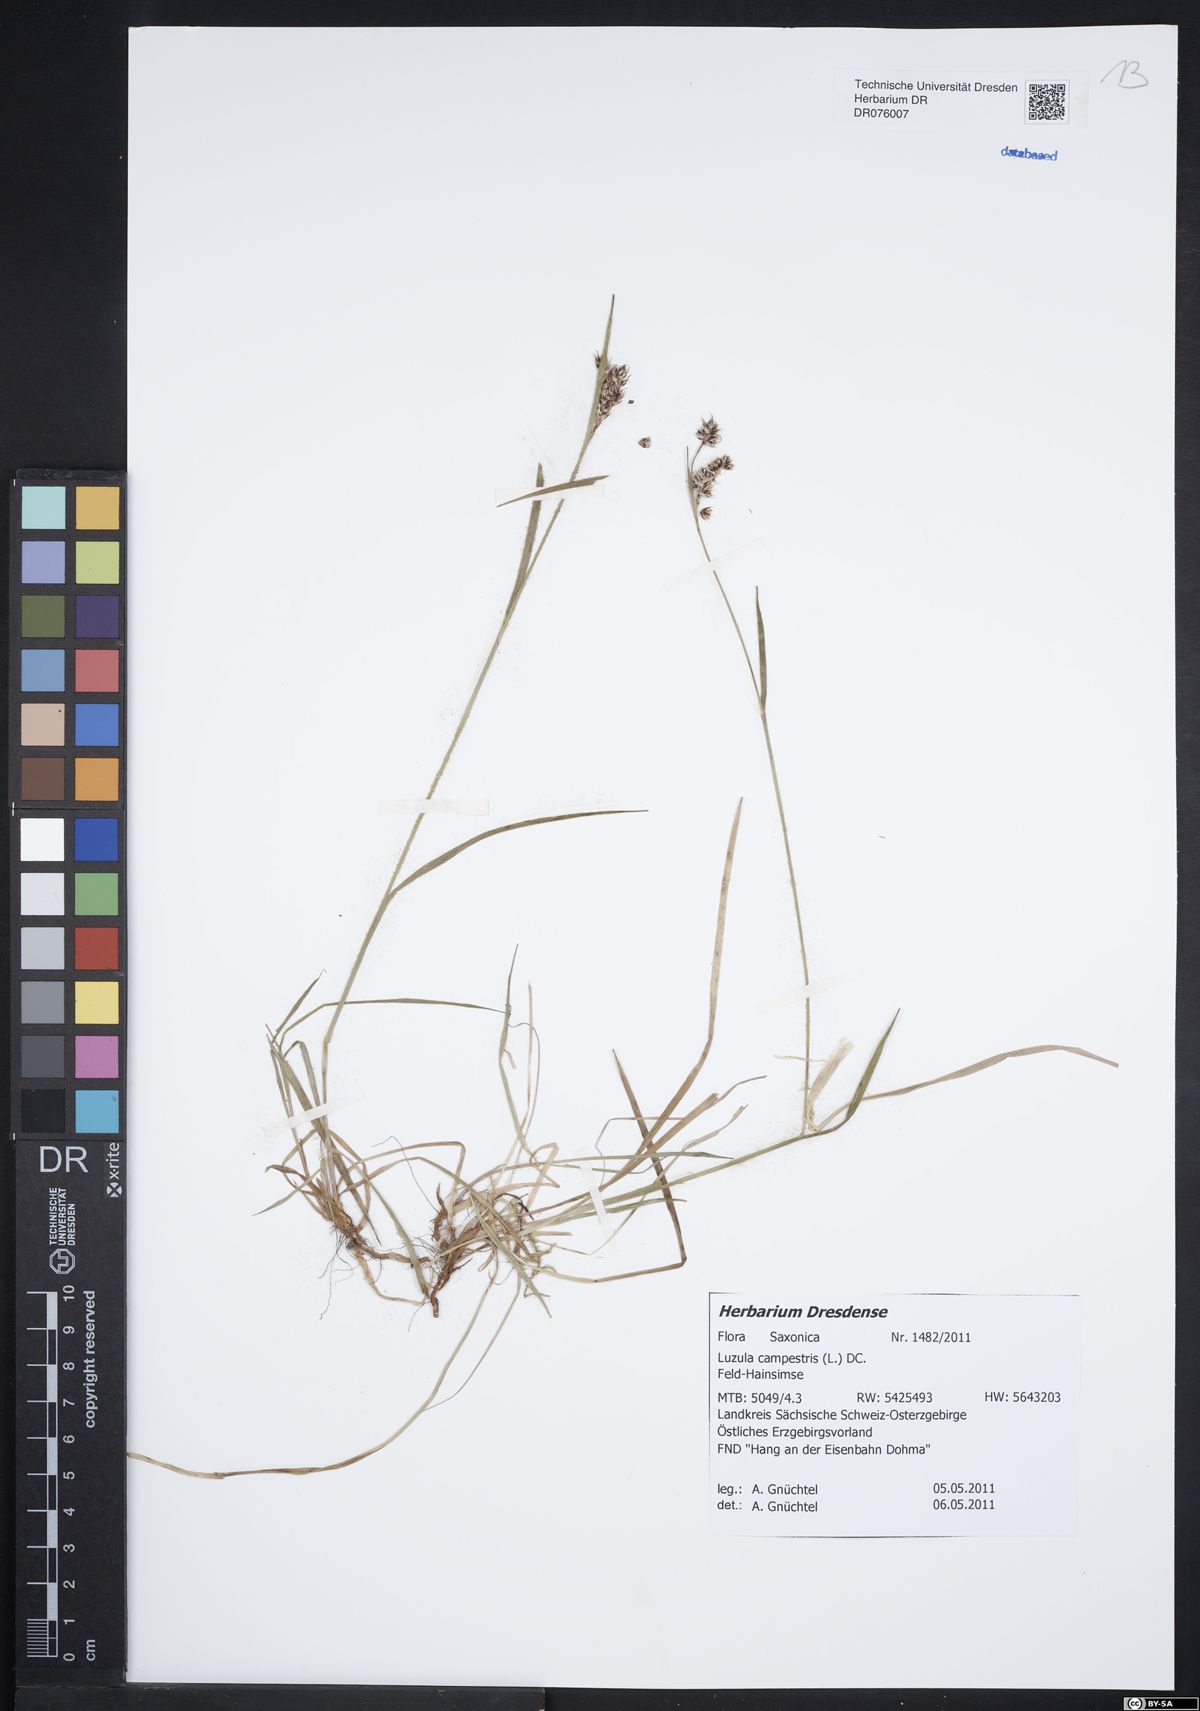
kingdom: Plantae
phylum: Tracheophyta
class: Liliopsida
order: Poales
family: Juncaceae
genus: Luzula
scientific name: Luzula campestris
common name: Field wood-rush
